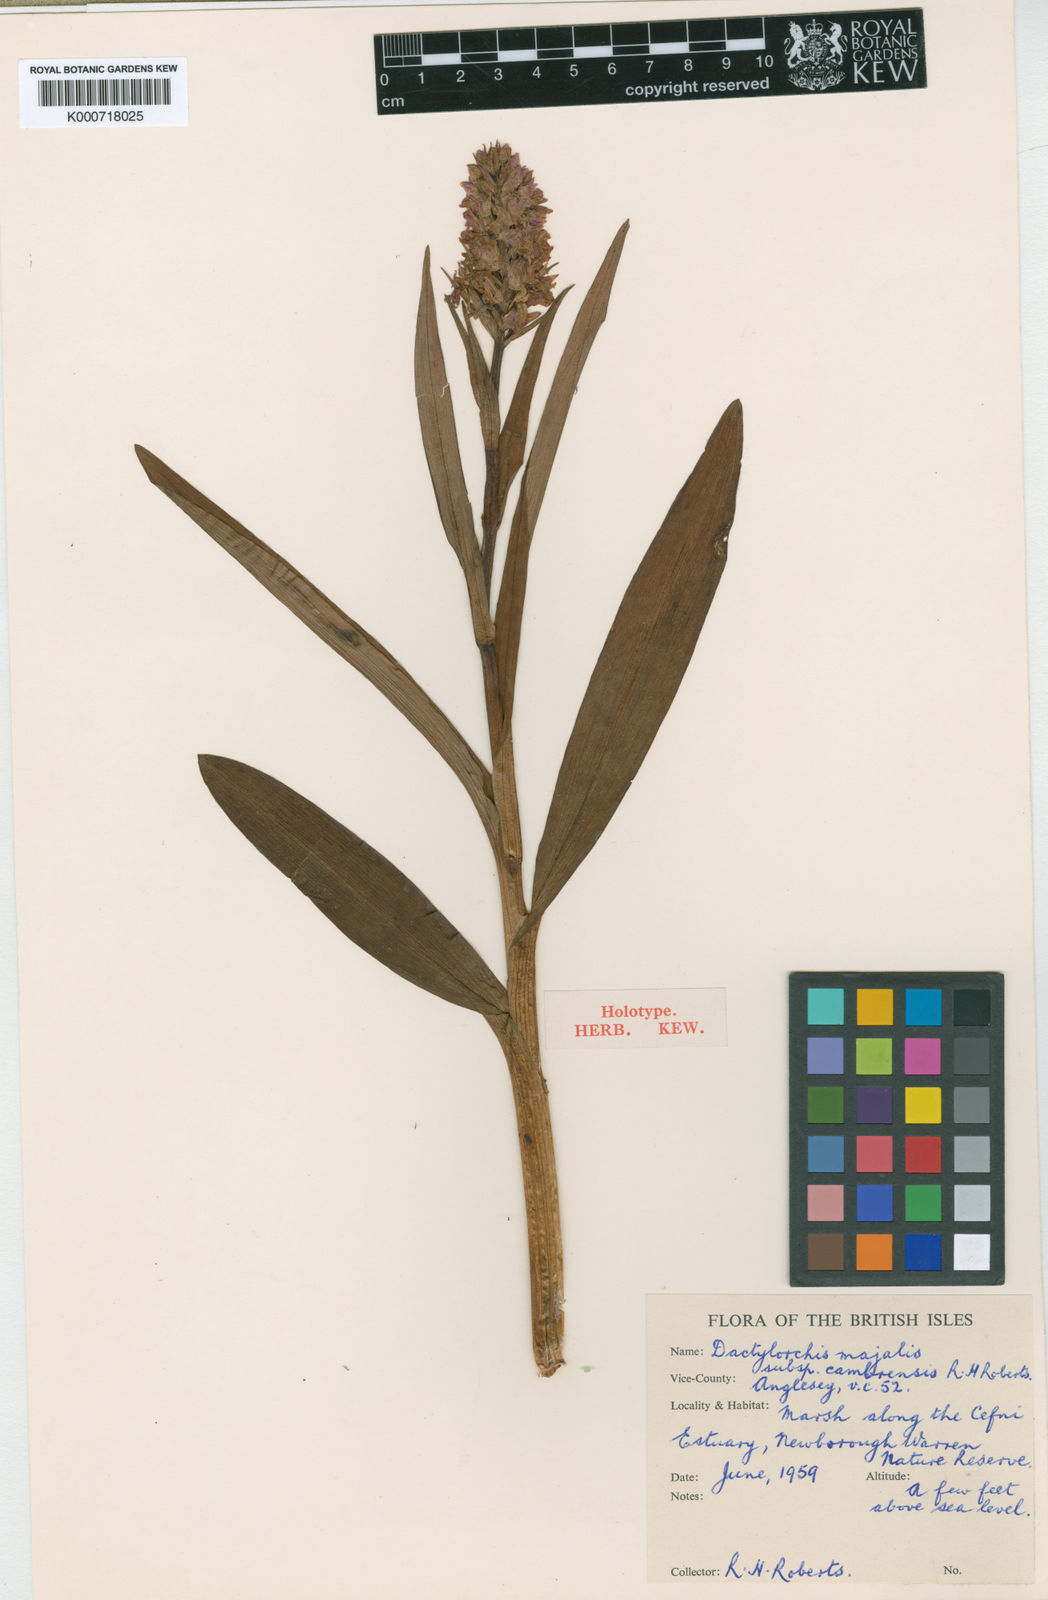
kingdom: Plantae
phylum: Tracheophyta
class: Liliopsida
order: Asparagales
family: Orchidaceae
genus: Dactylorhiza
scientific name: Dactylorhiza majalis
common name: Marsh orchid
